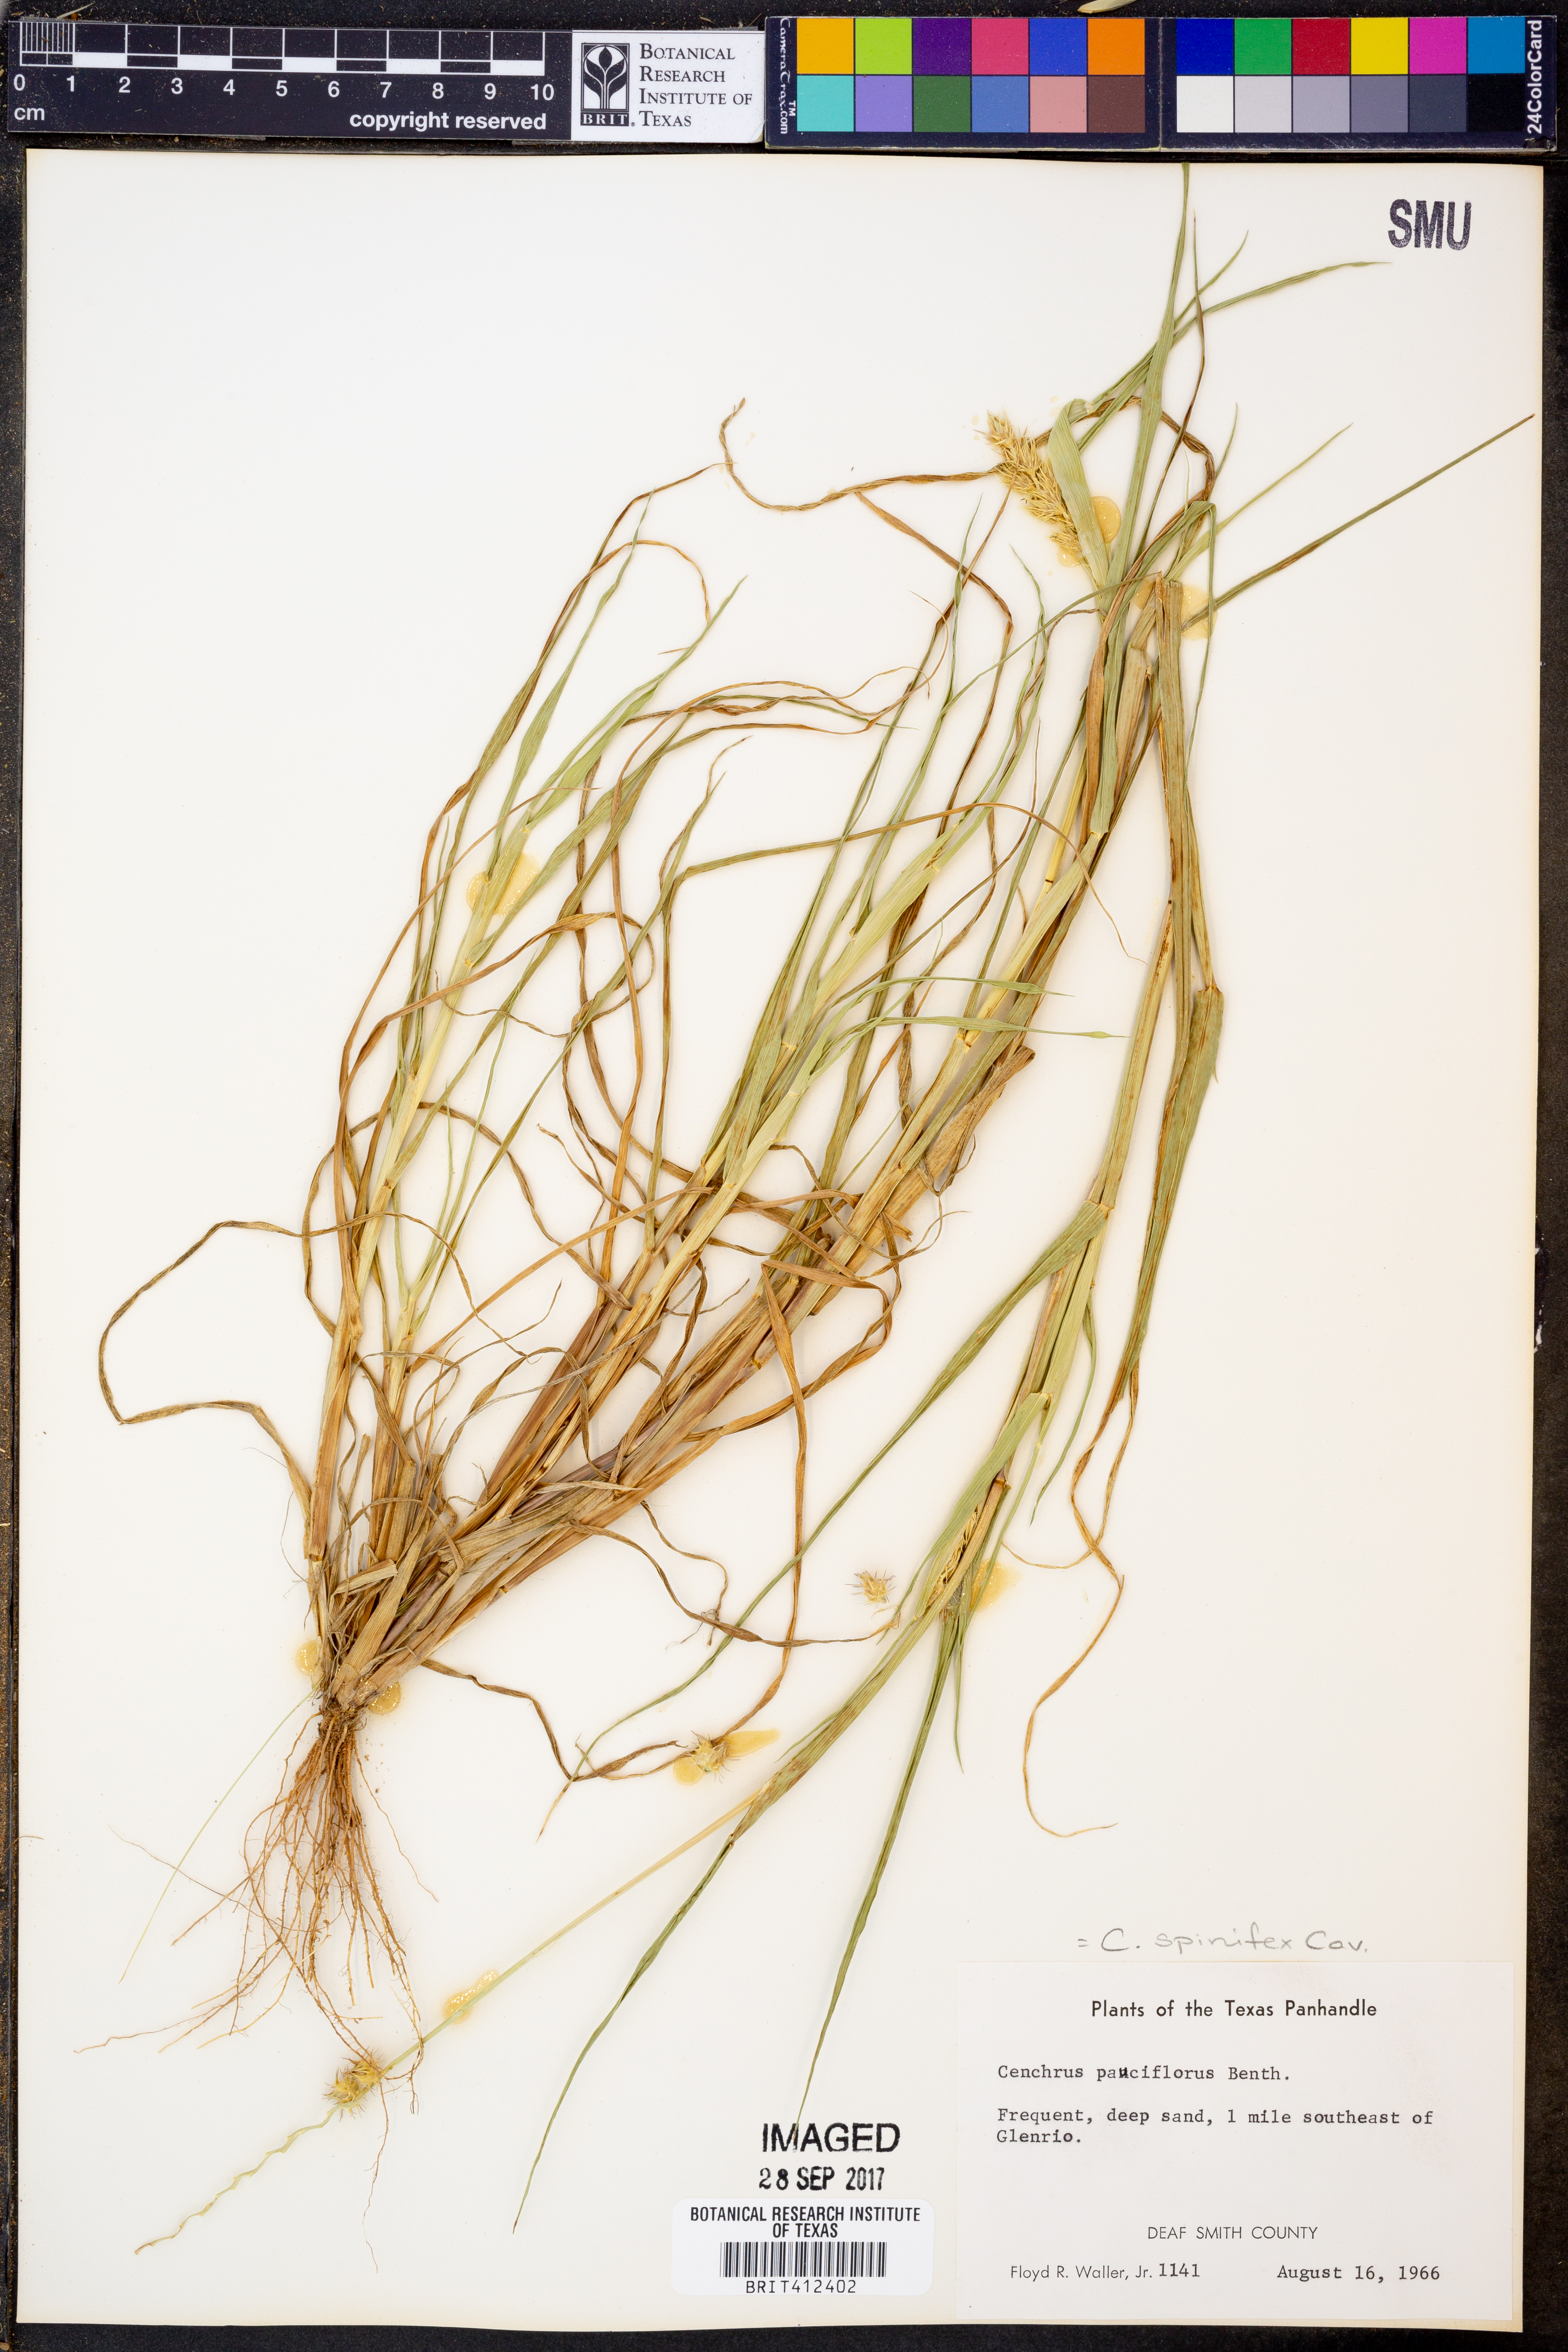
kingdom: Plantae
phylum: Tracheophyta
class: Liliopsida
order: Poales
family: Poaceae
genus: Cenchrus
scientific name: Cenchrus spinifex
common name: Coast sandbur
